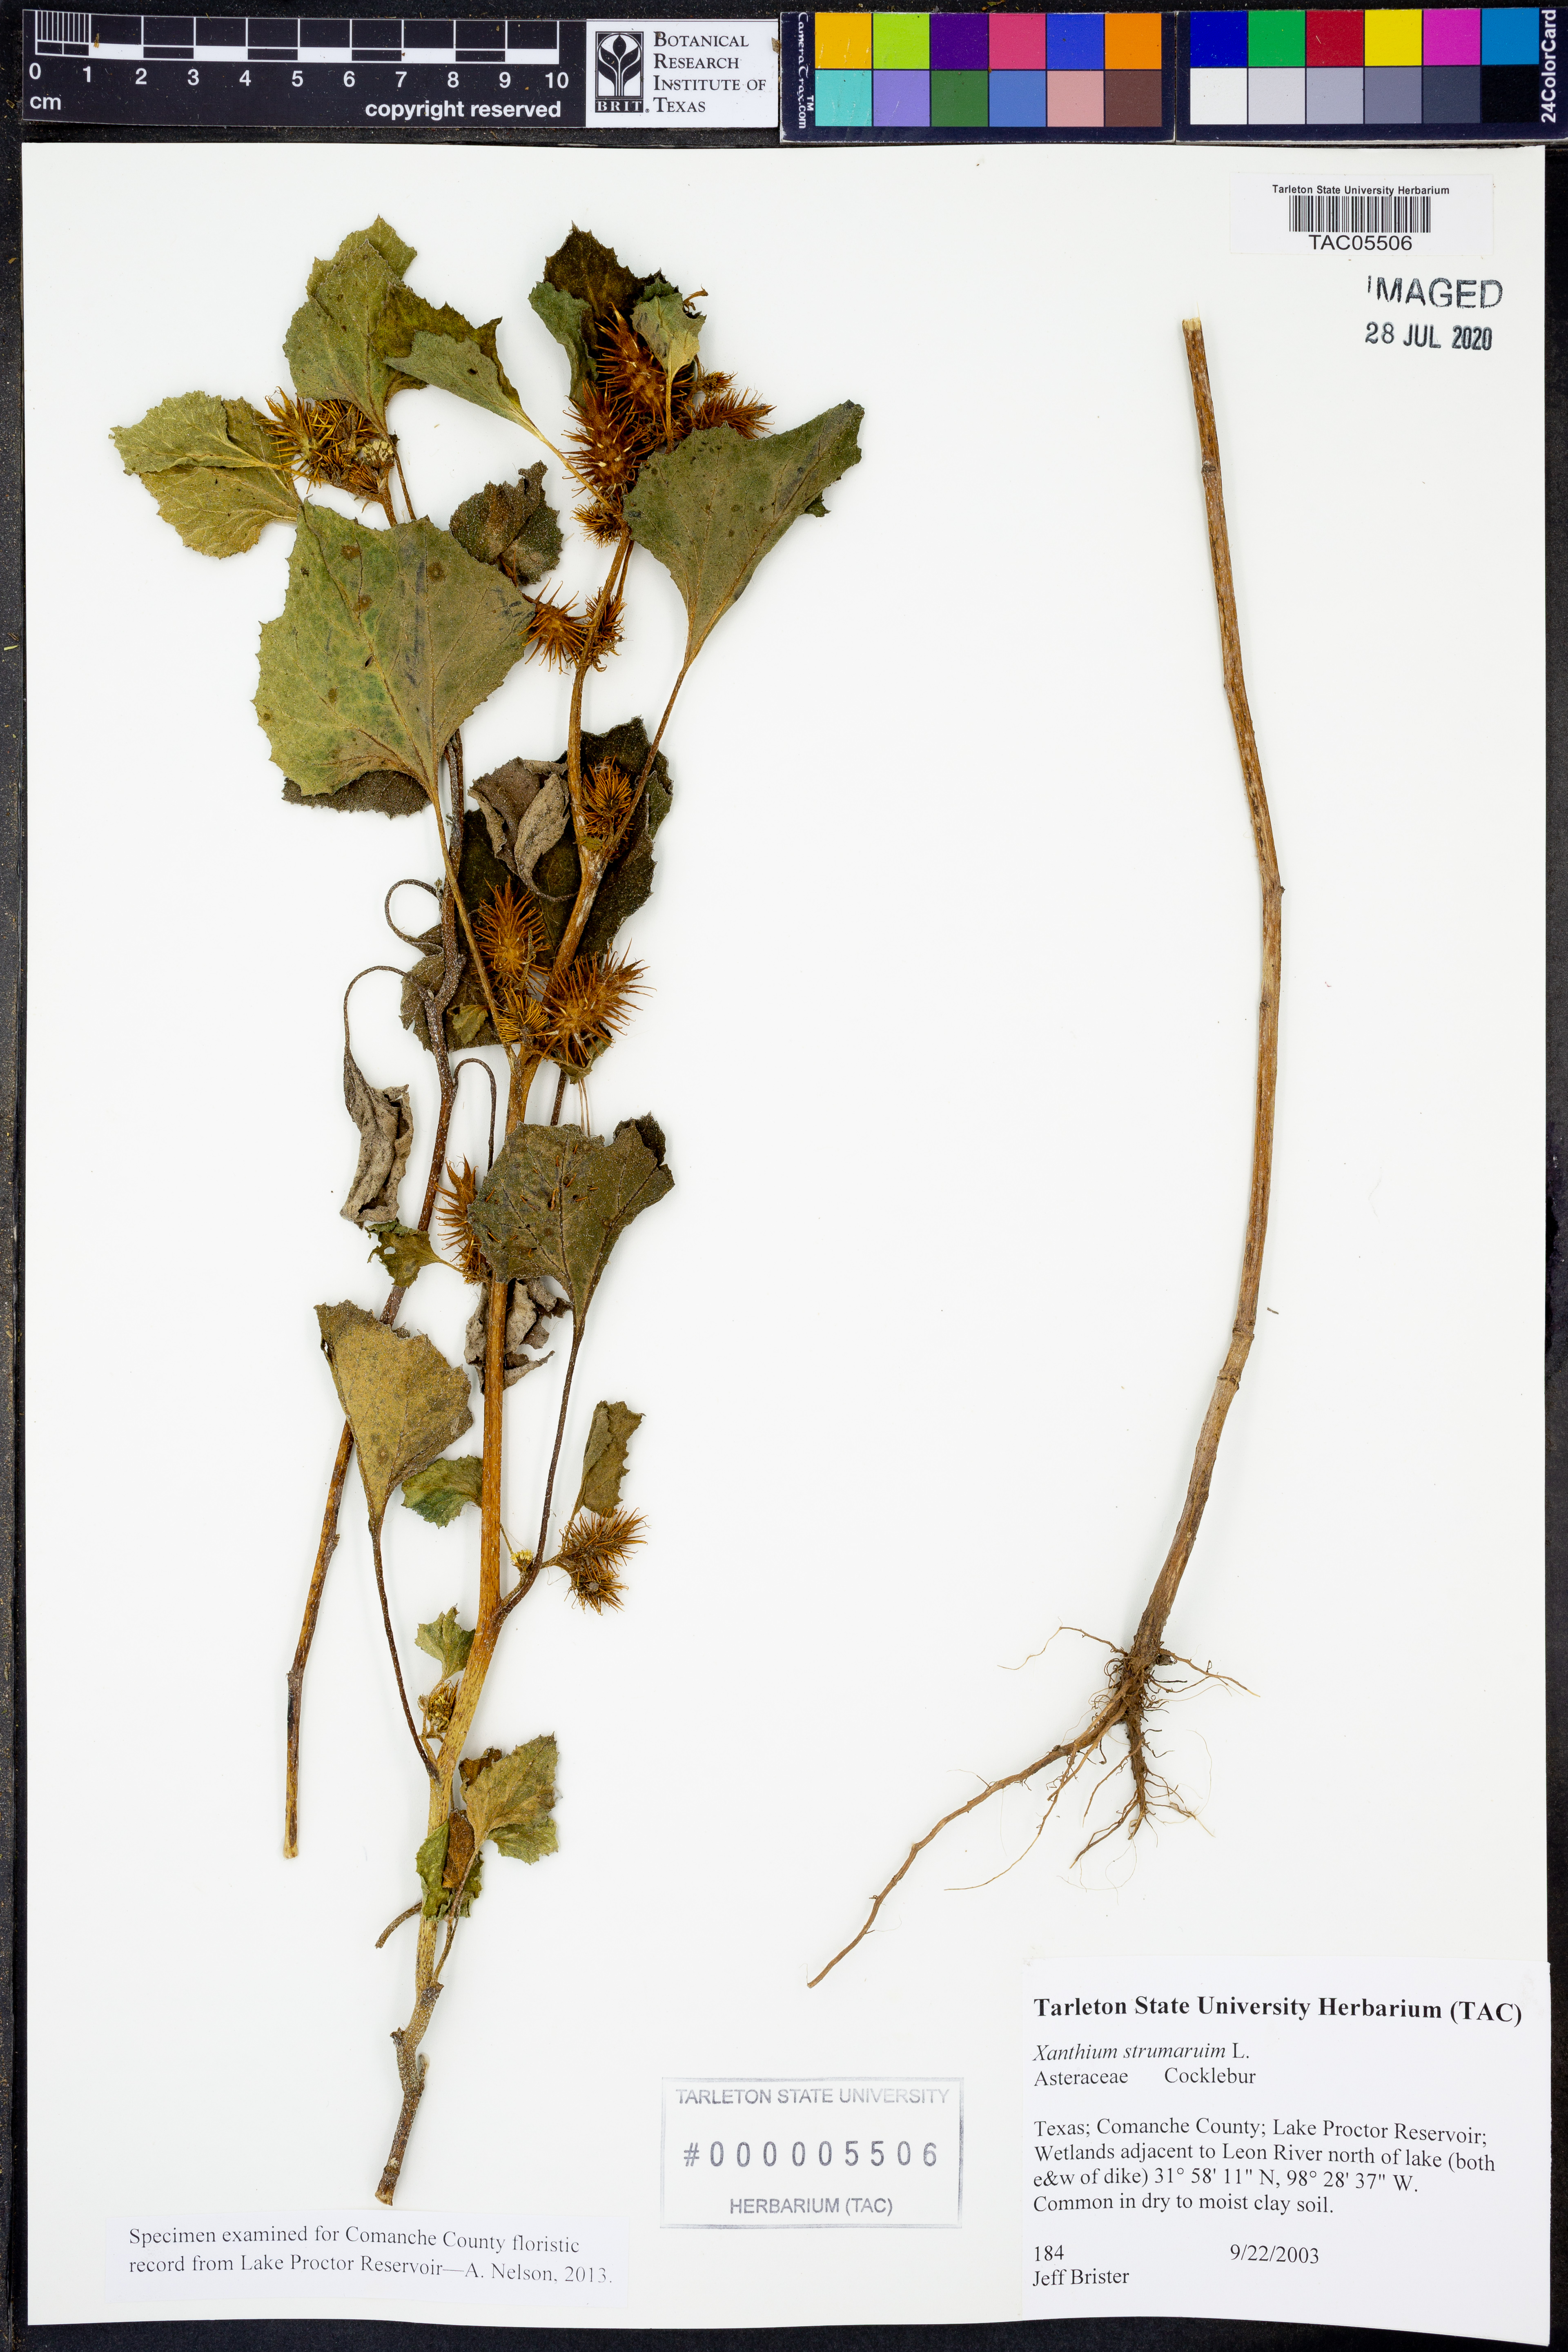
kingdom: Plantae
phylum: Tracheophyta
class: Magnoliopsida
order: Asterales
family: Asteraceae
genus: Xanthium
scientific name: Xanthium strumarium
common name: Rough cocklebur
